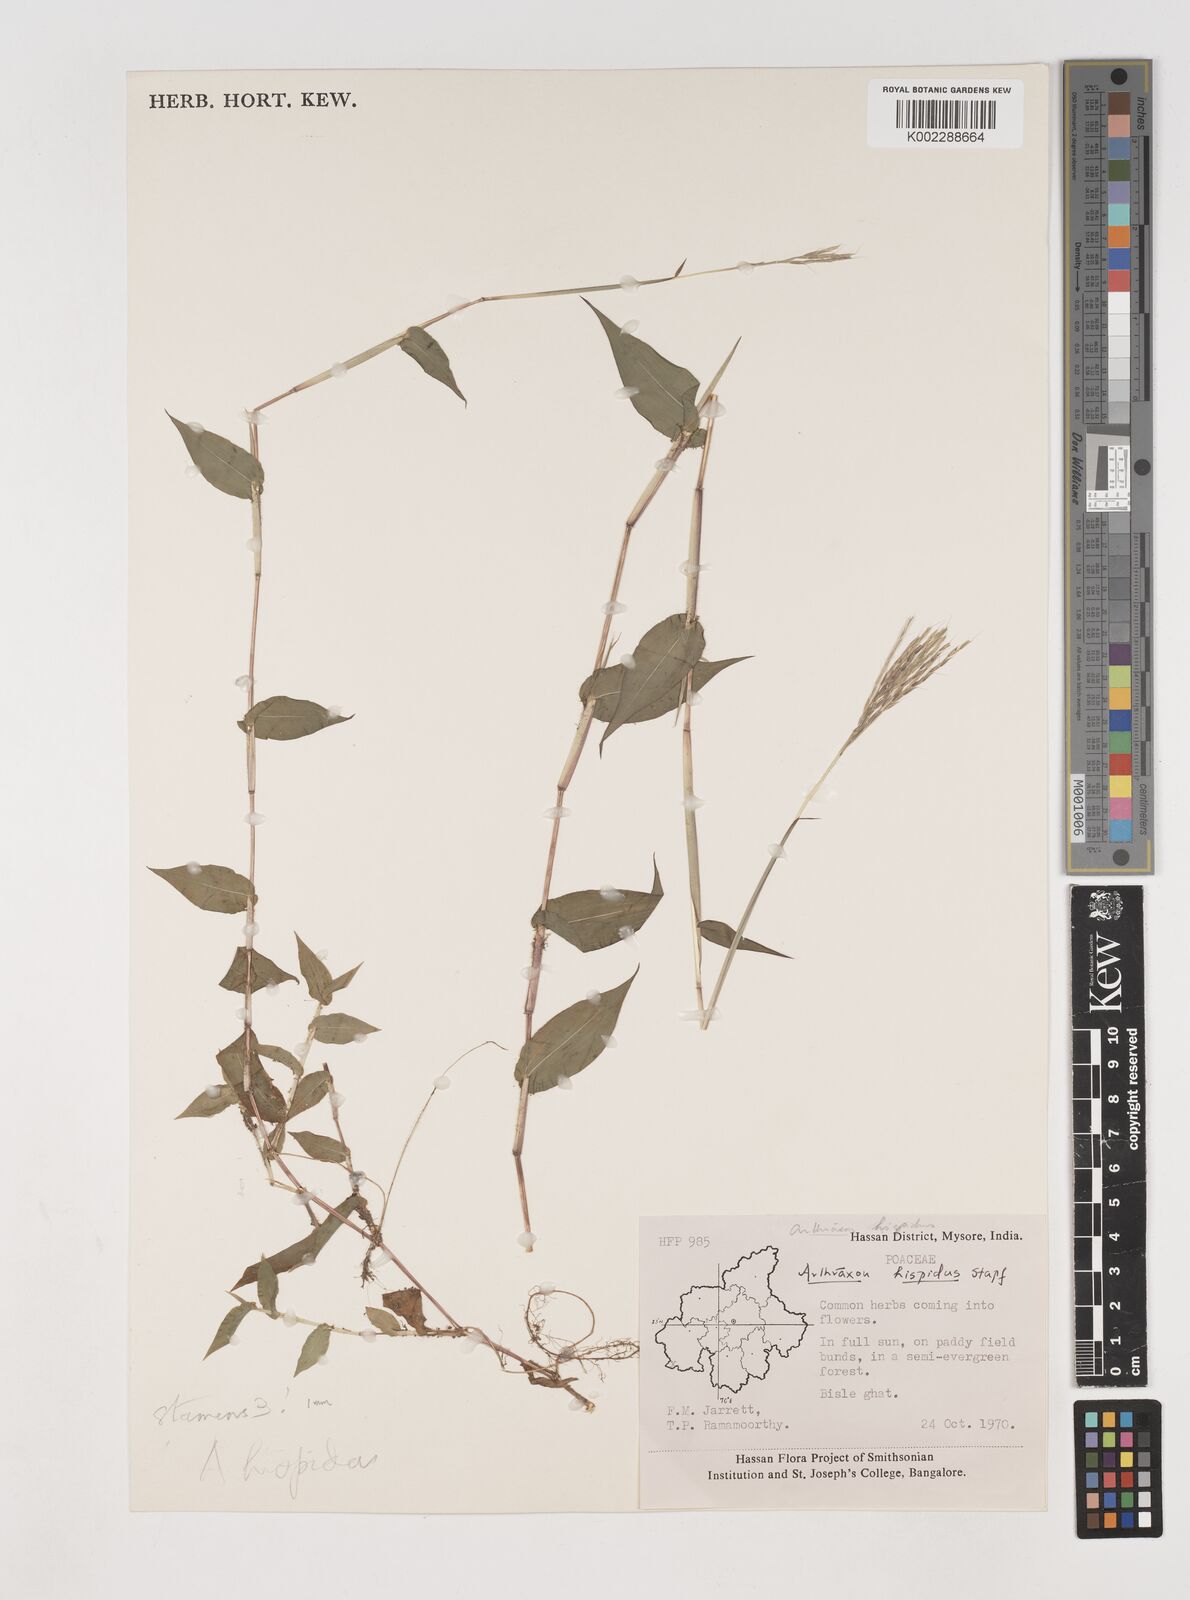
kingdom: Plantae
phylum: Tracheophyta
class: Liliopsida
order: Poales
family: Poaceae
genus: Arthraxon
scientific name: Arthraxon nudus
